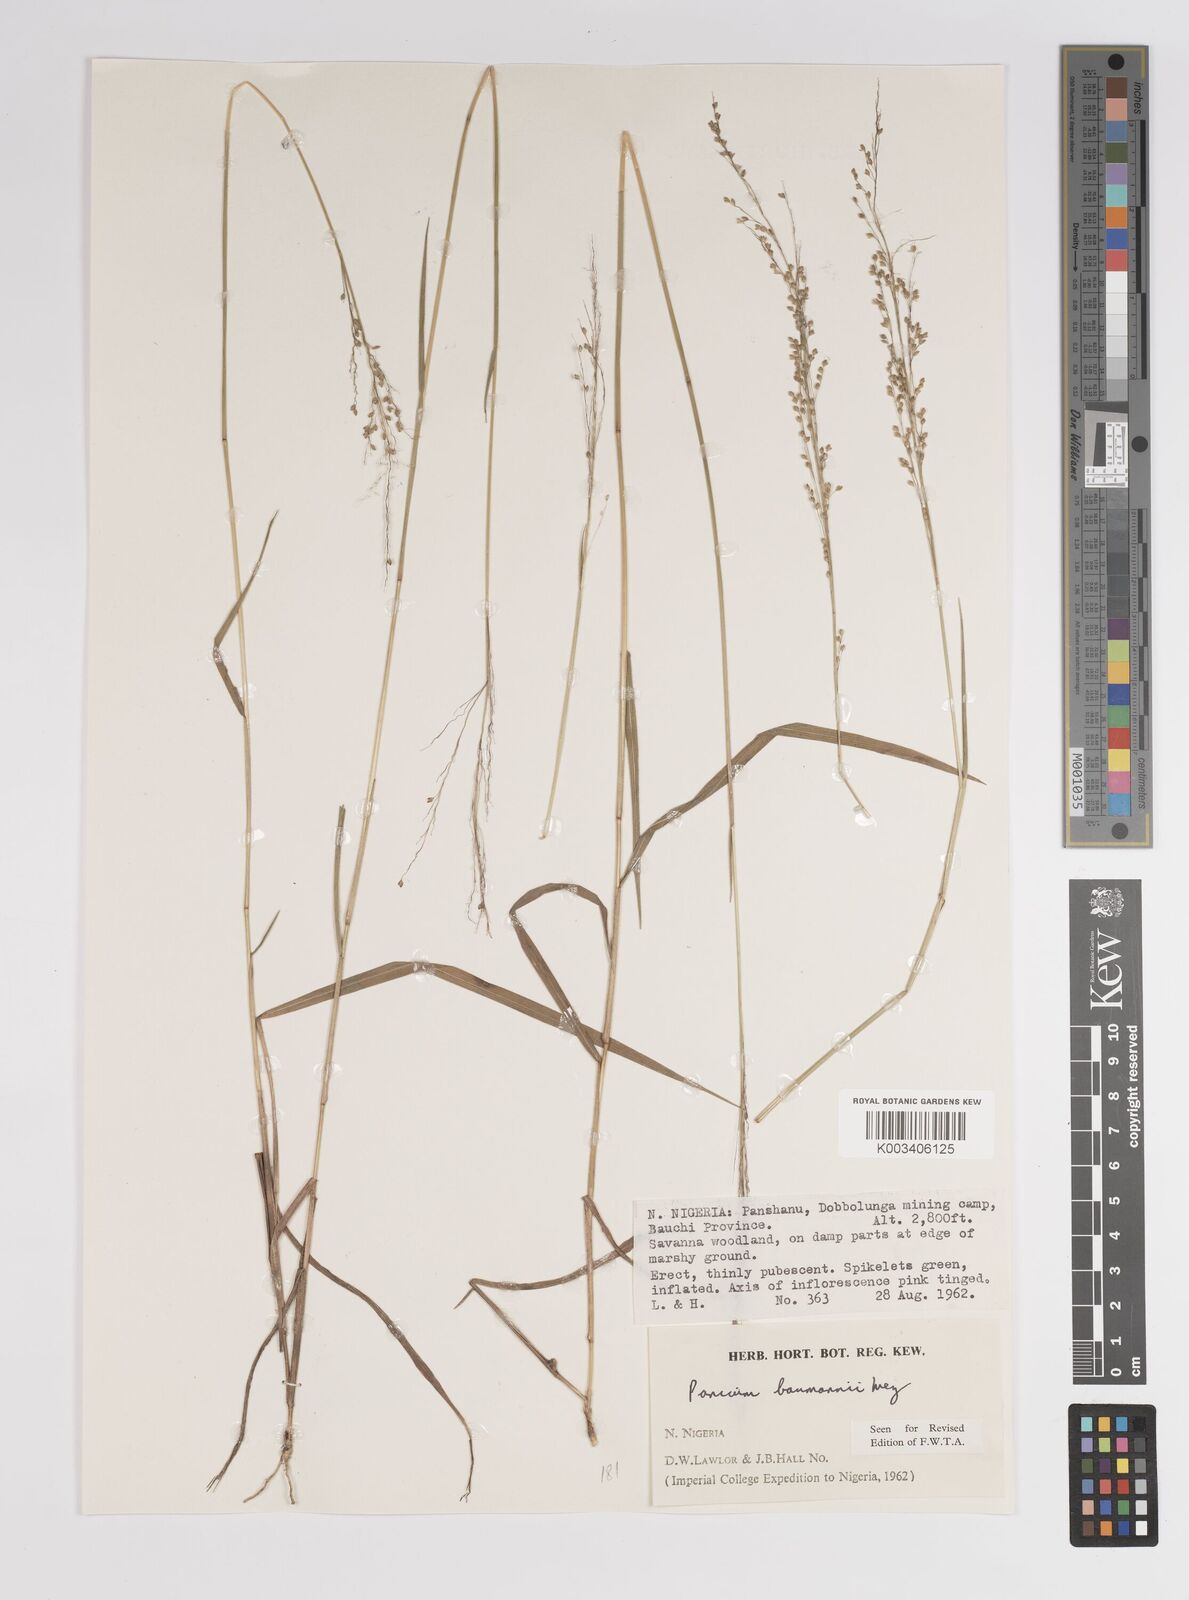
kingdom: Plantae
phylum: Tracheophyta
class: Liliopsida
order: Poales
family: Poaceae
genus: Trichanthecium
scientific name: Trichanthecium nervatum
